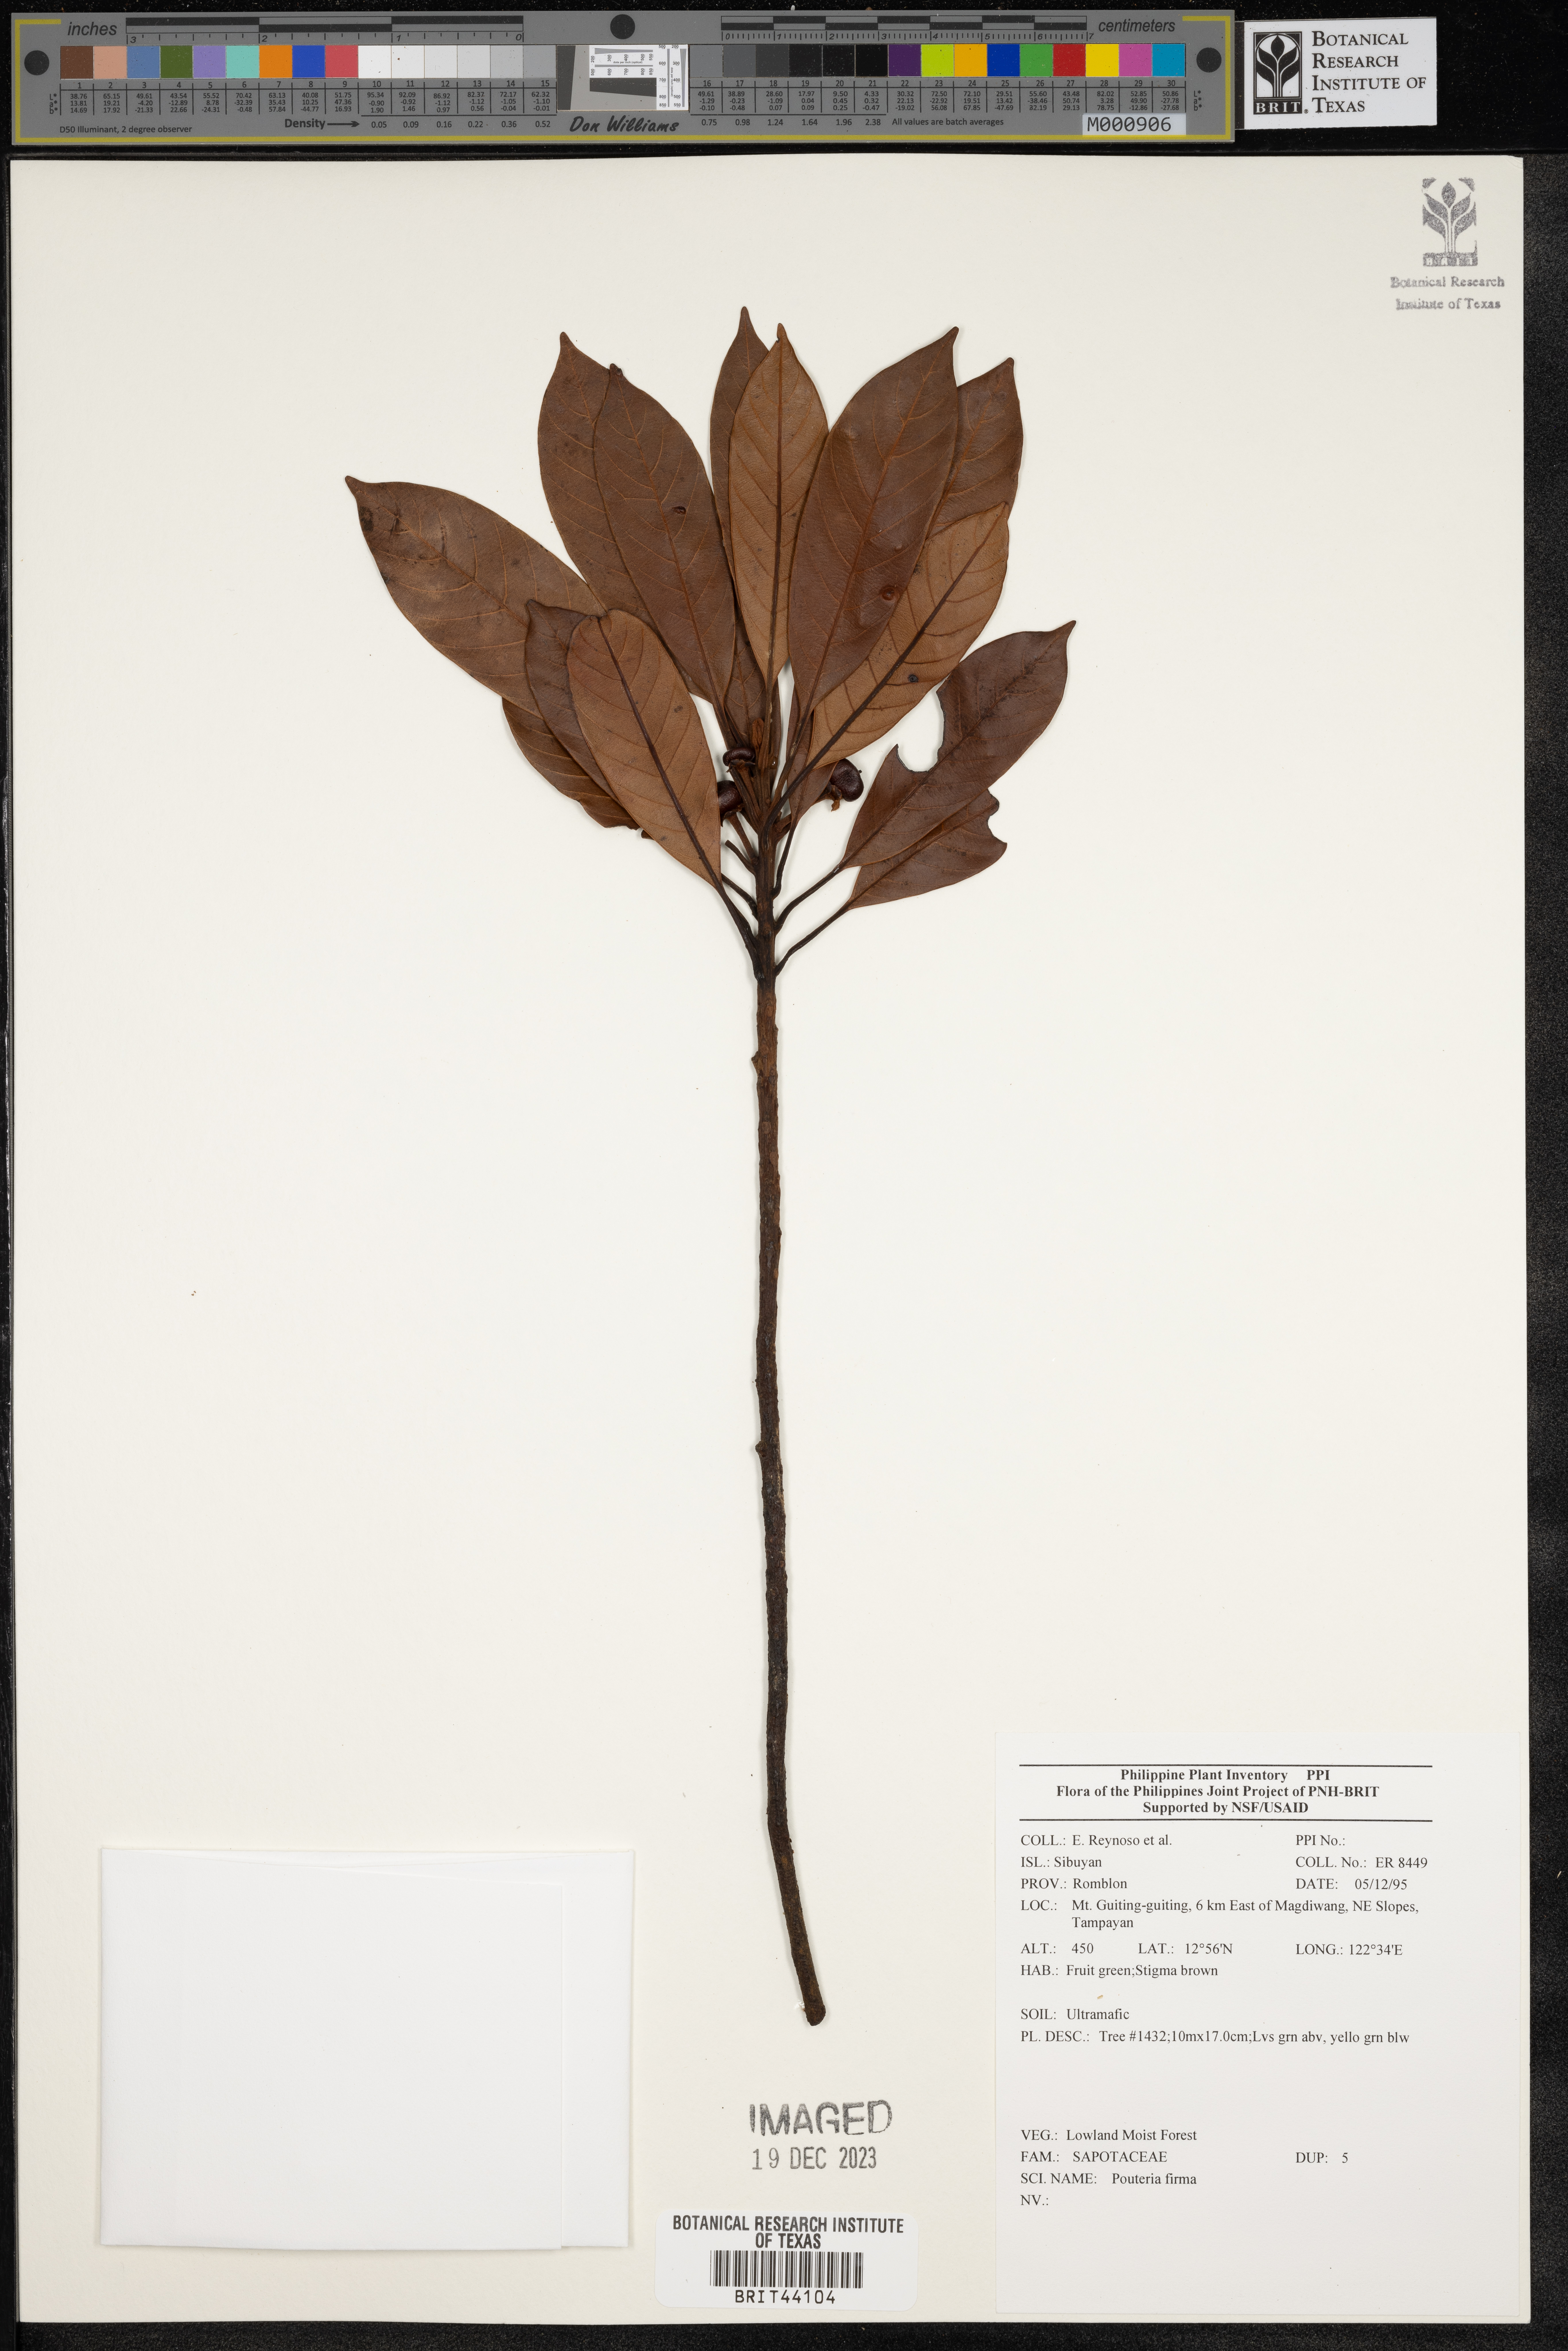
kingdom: Plantae
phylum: Tracheophyta
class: Magnoliopsida
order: Ericales
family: Sapotaceae
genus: Pleioluma
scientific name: Pleioluma firma
